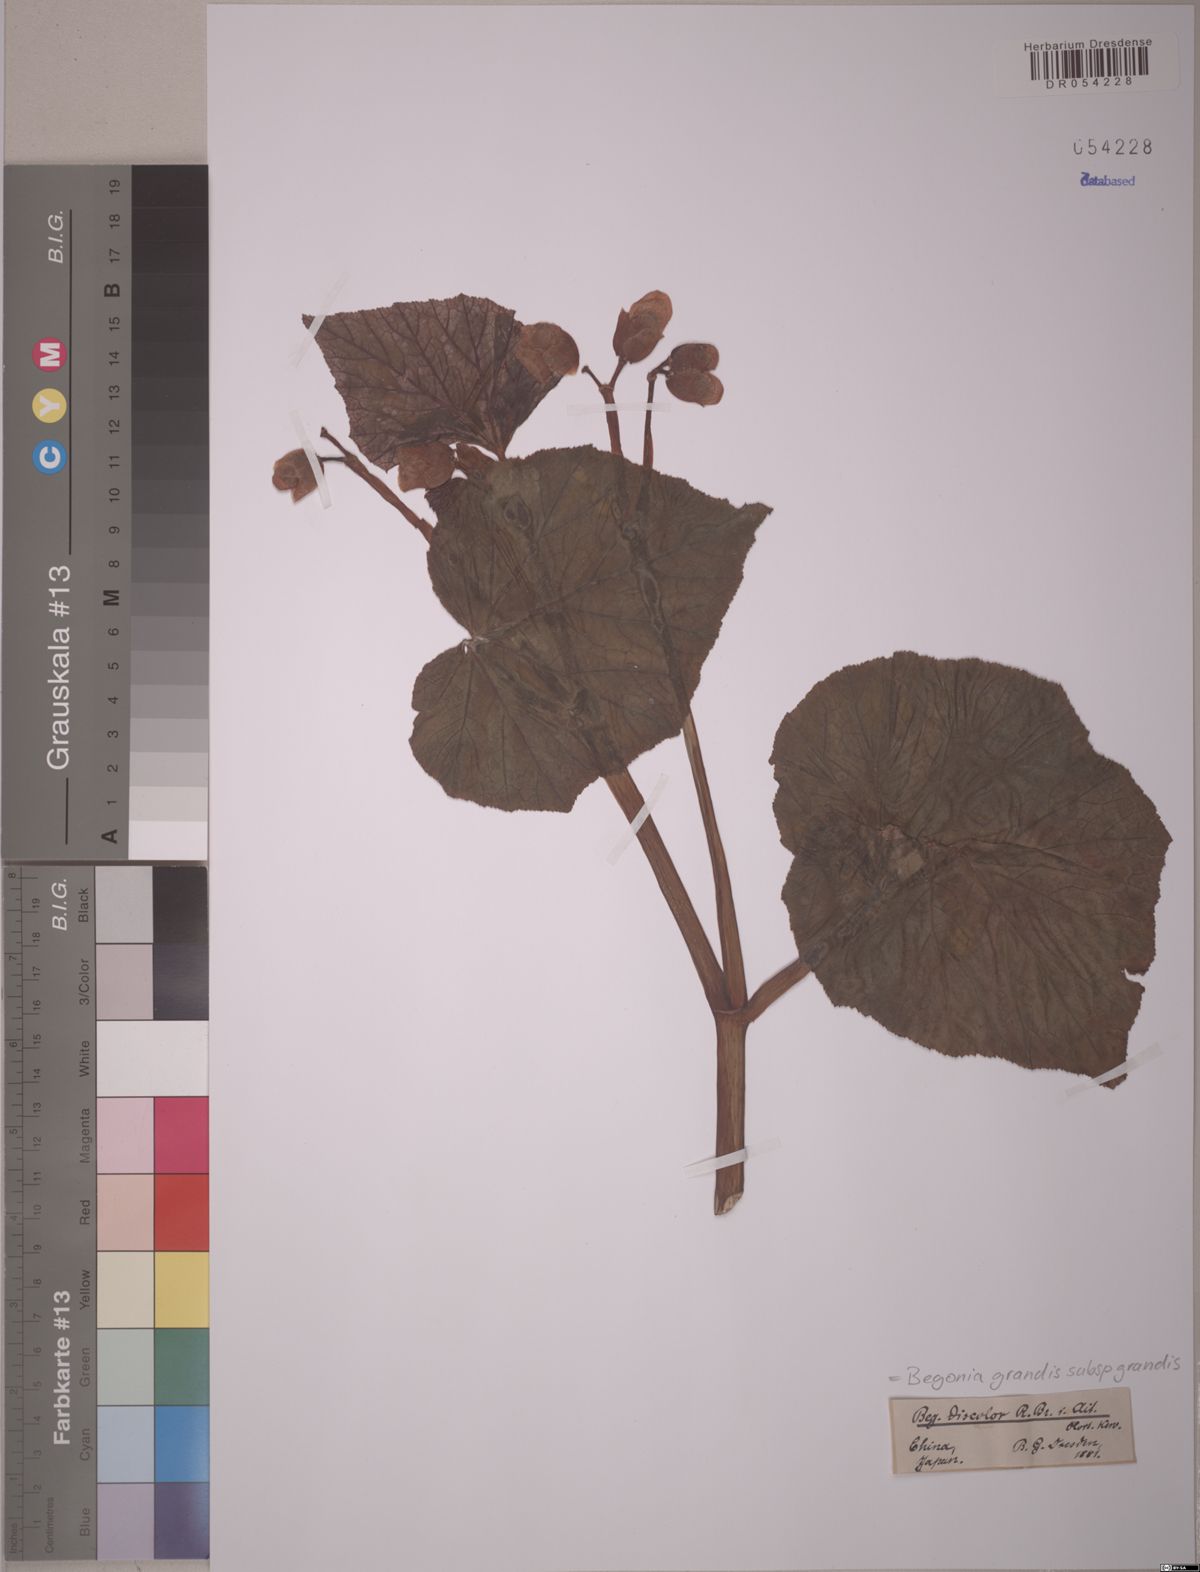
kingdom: Plantae
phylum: Tracheophyta
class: Magnoliopsida
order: Cucurbitales
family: Begoniaceae
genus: Begonia
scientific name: Begonia grandis
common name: Hardy begonia
